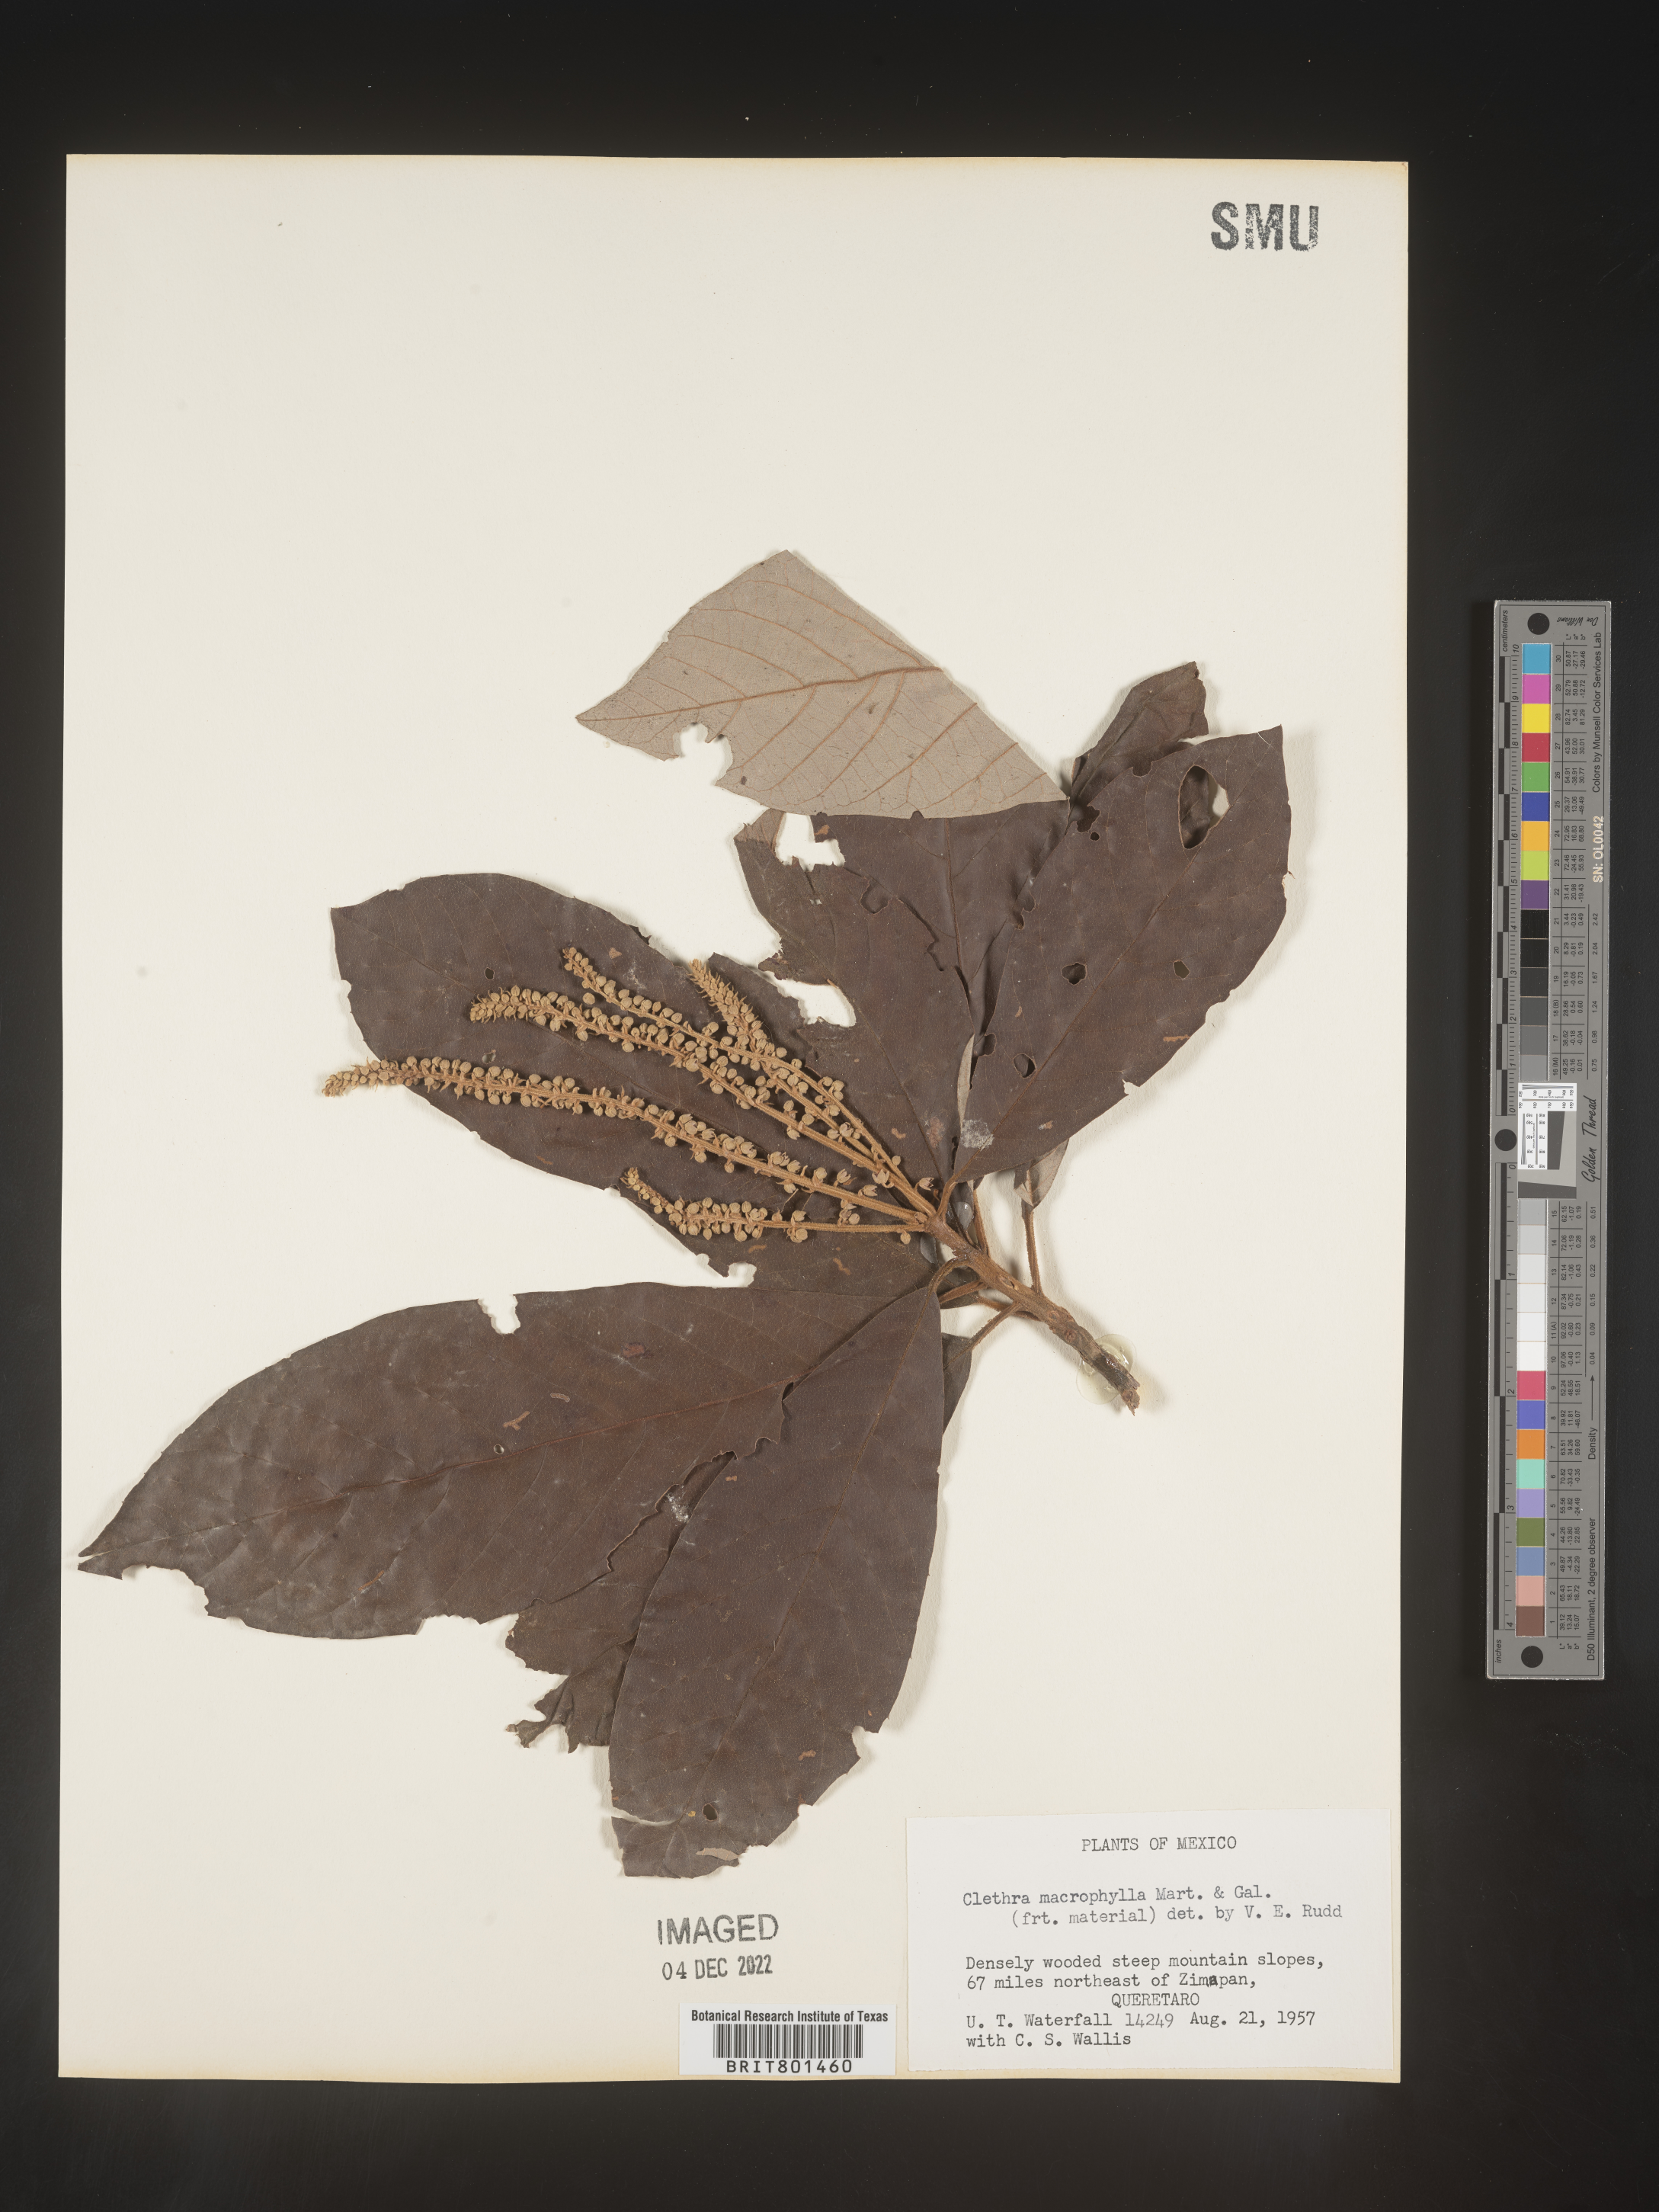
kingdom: Plantae
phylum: Tracheophyta
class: Magnoliopsida
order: Ericales
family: Clethraceae
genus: Clethra
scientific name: Clethra
